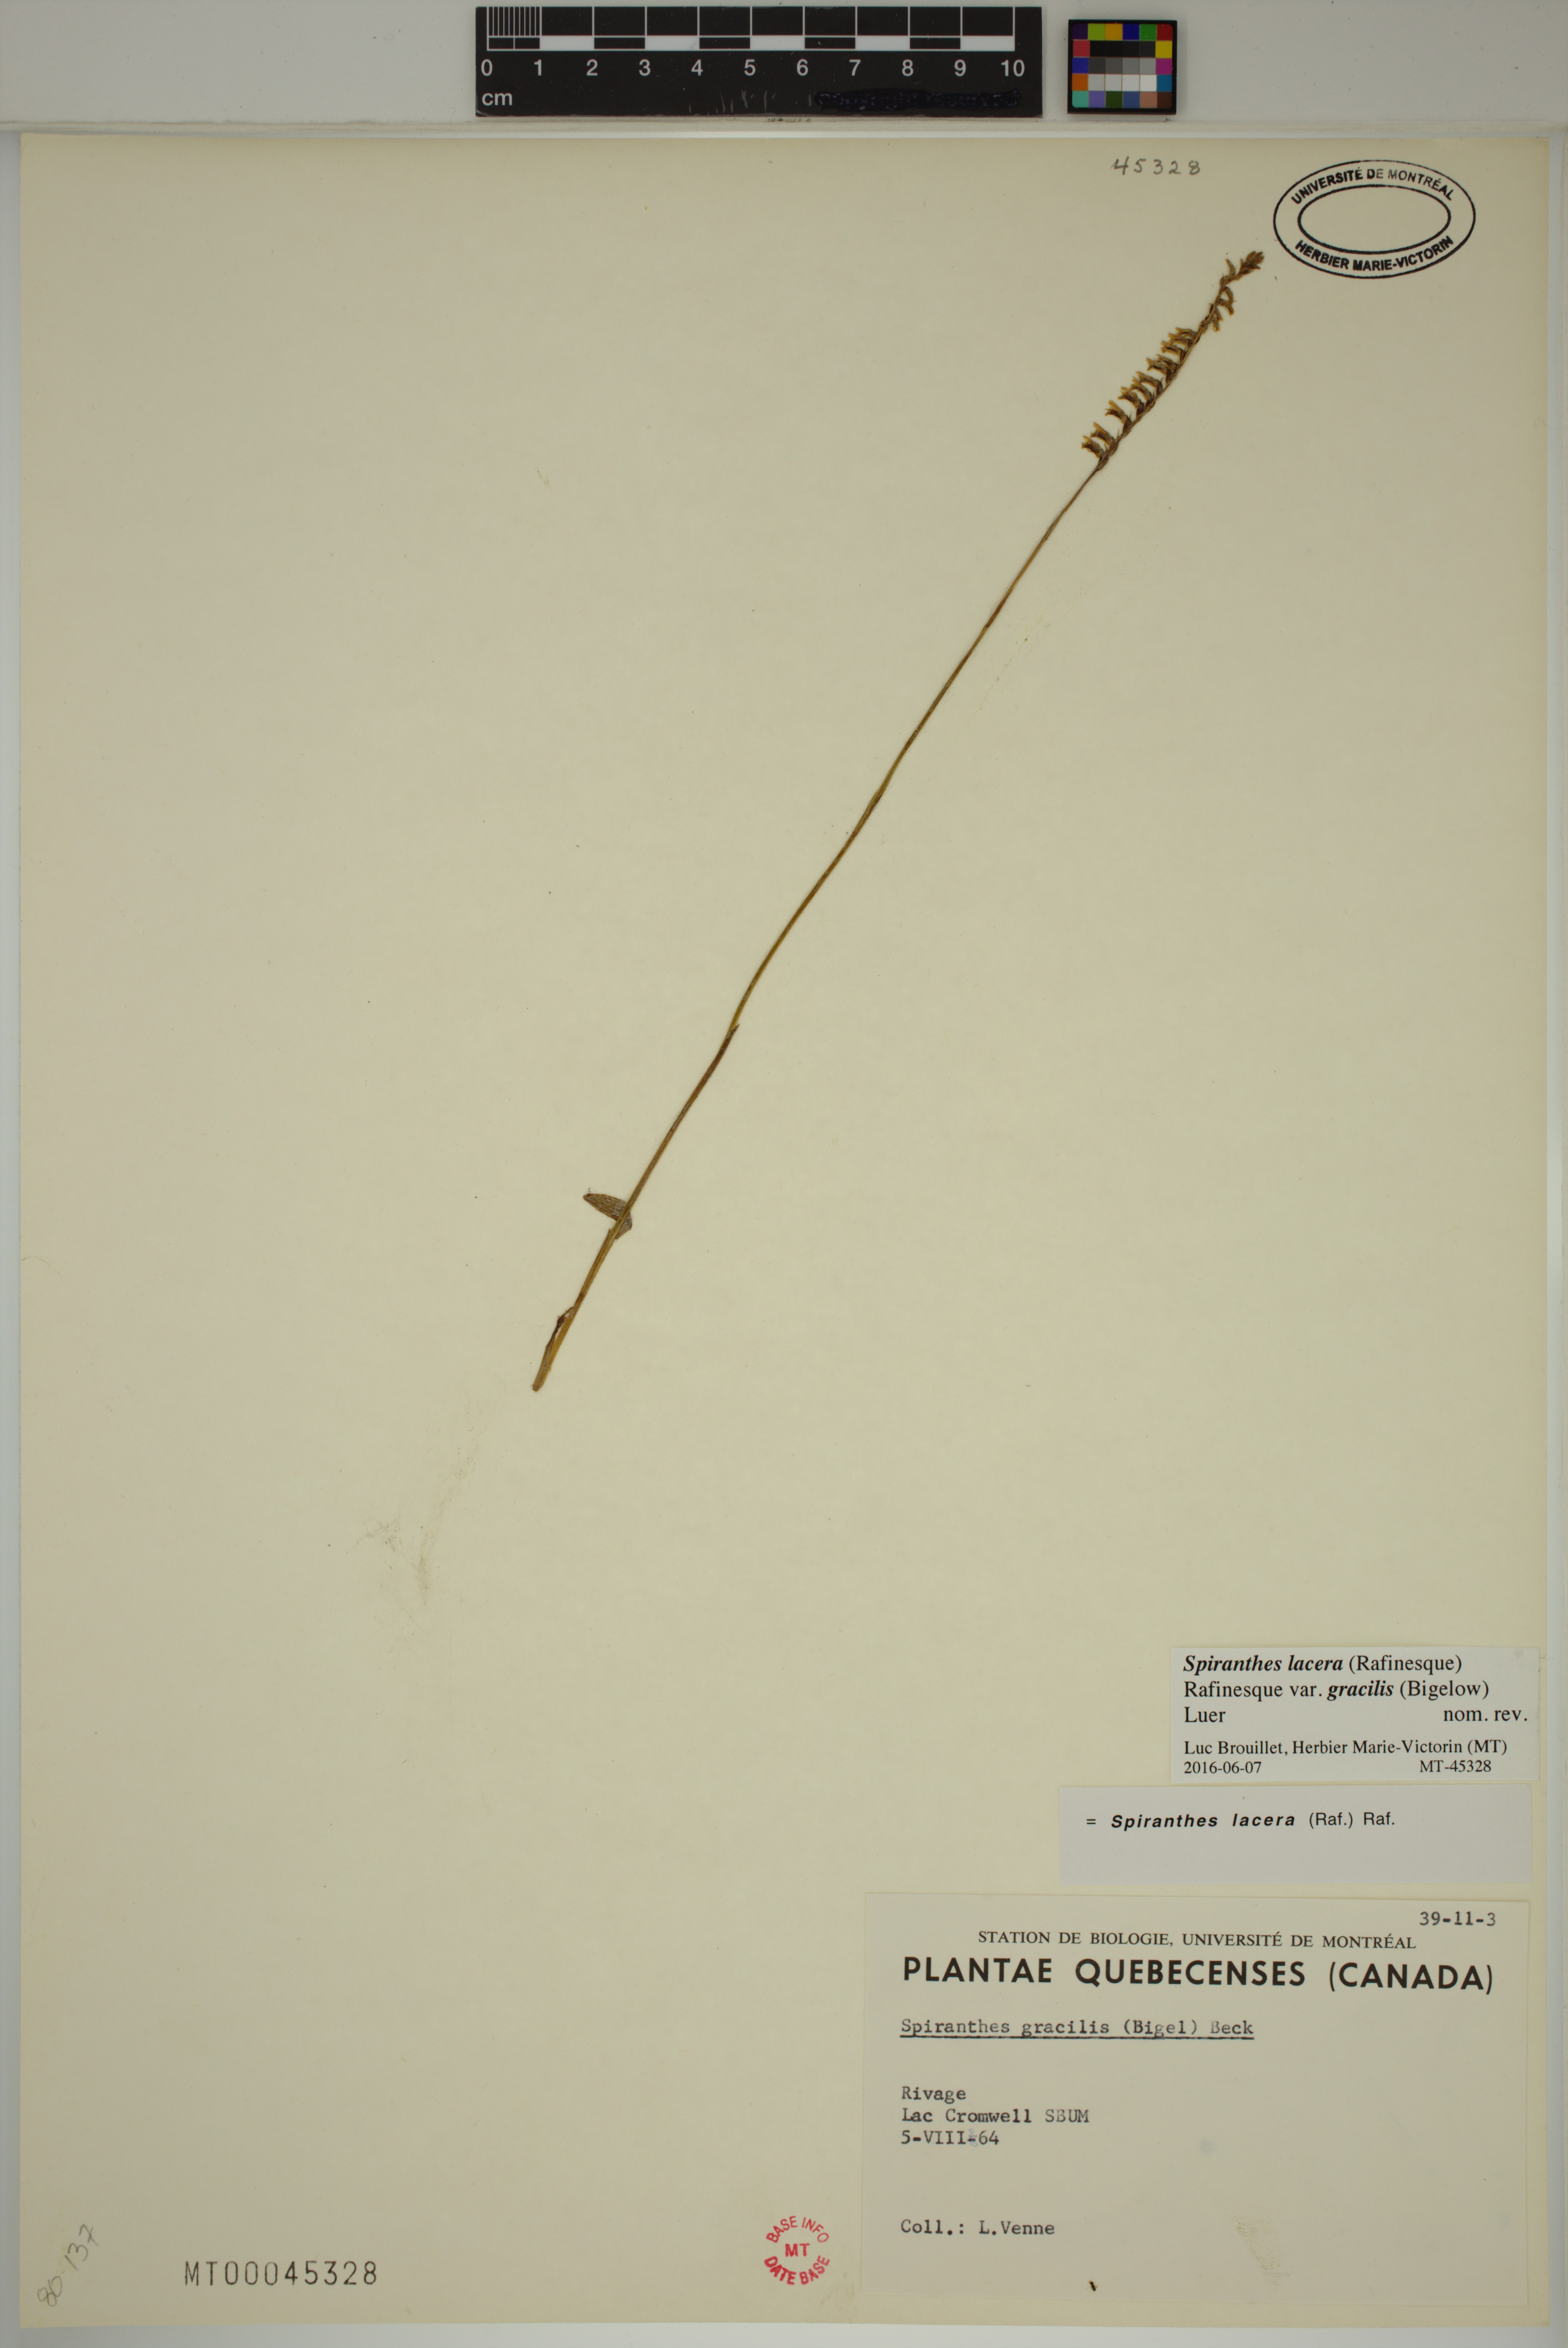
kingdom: Plantae
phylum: Tracheophyta
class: Liliopsida
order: Asparagales
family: Orchidaceae
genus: Spiranthes
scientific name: Spiranthes lacera
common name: Northern slender ladies'-tresses
